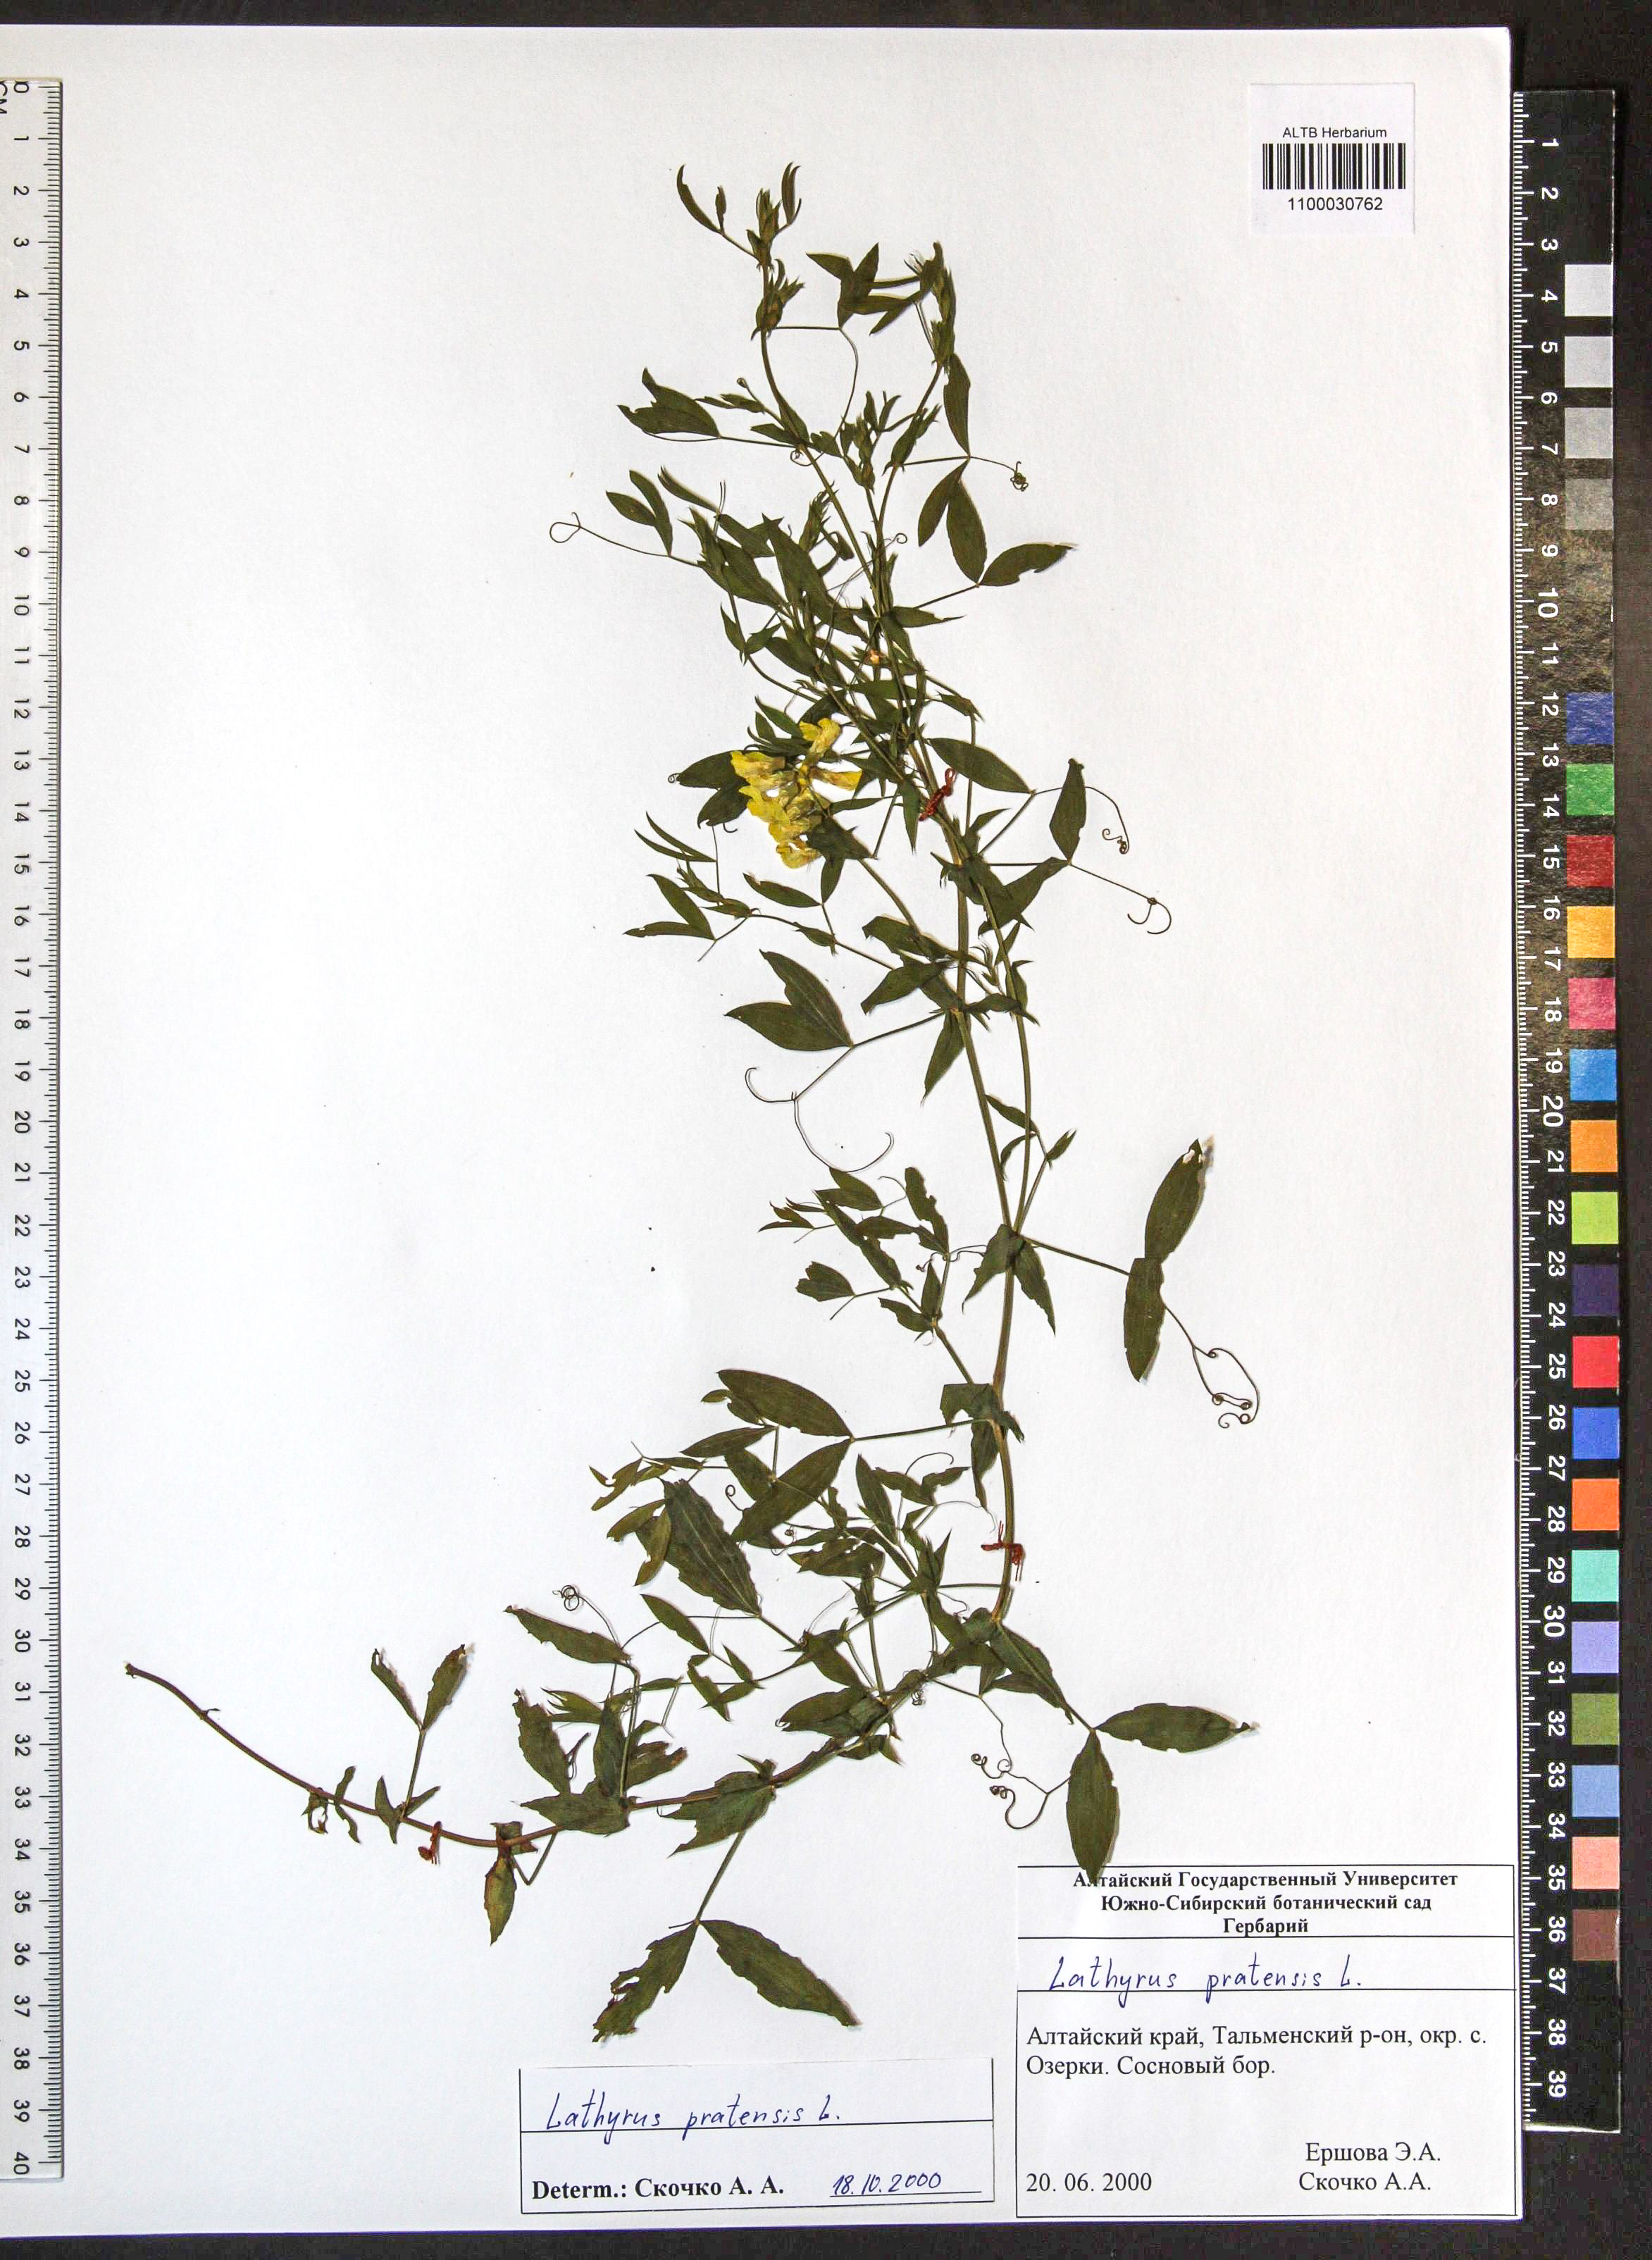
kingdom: Plantae
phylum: Tracheophyta
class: Magnoliopsida
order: Fabales
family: Fabaceae
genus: Lathyrus
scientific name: Lathyrus pratensis
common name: Meadow vetchling
